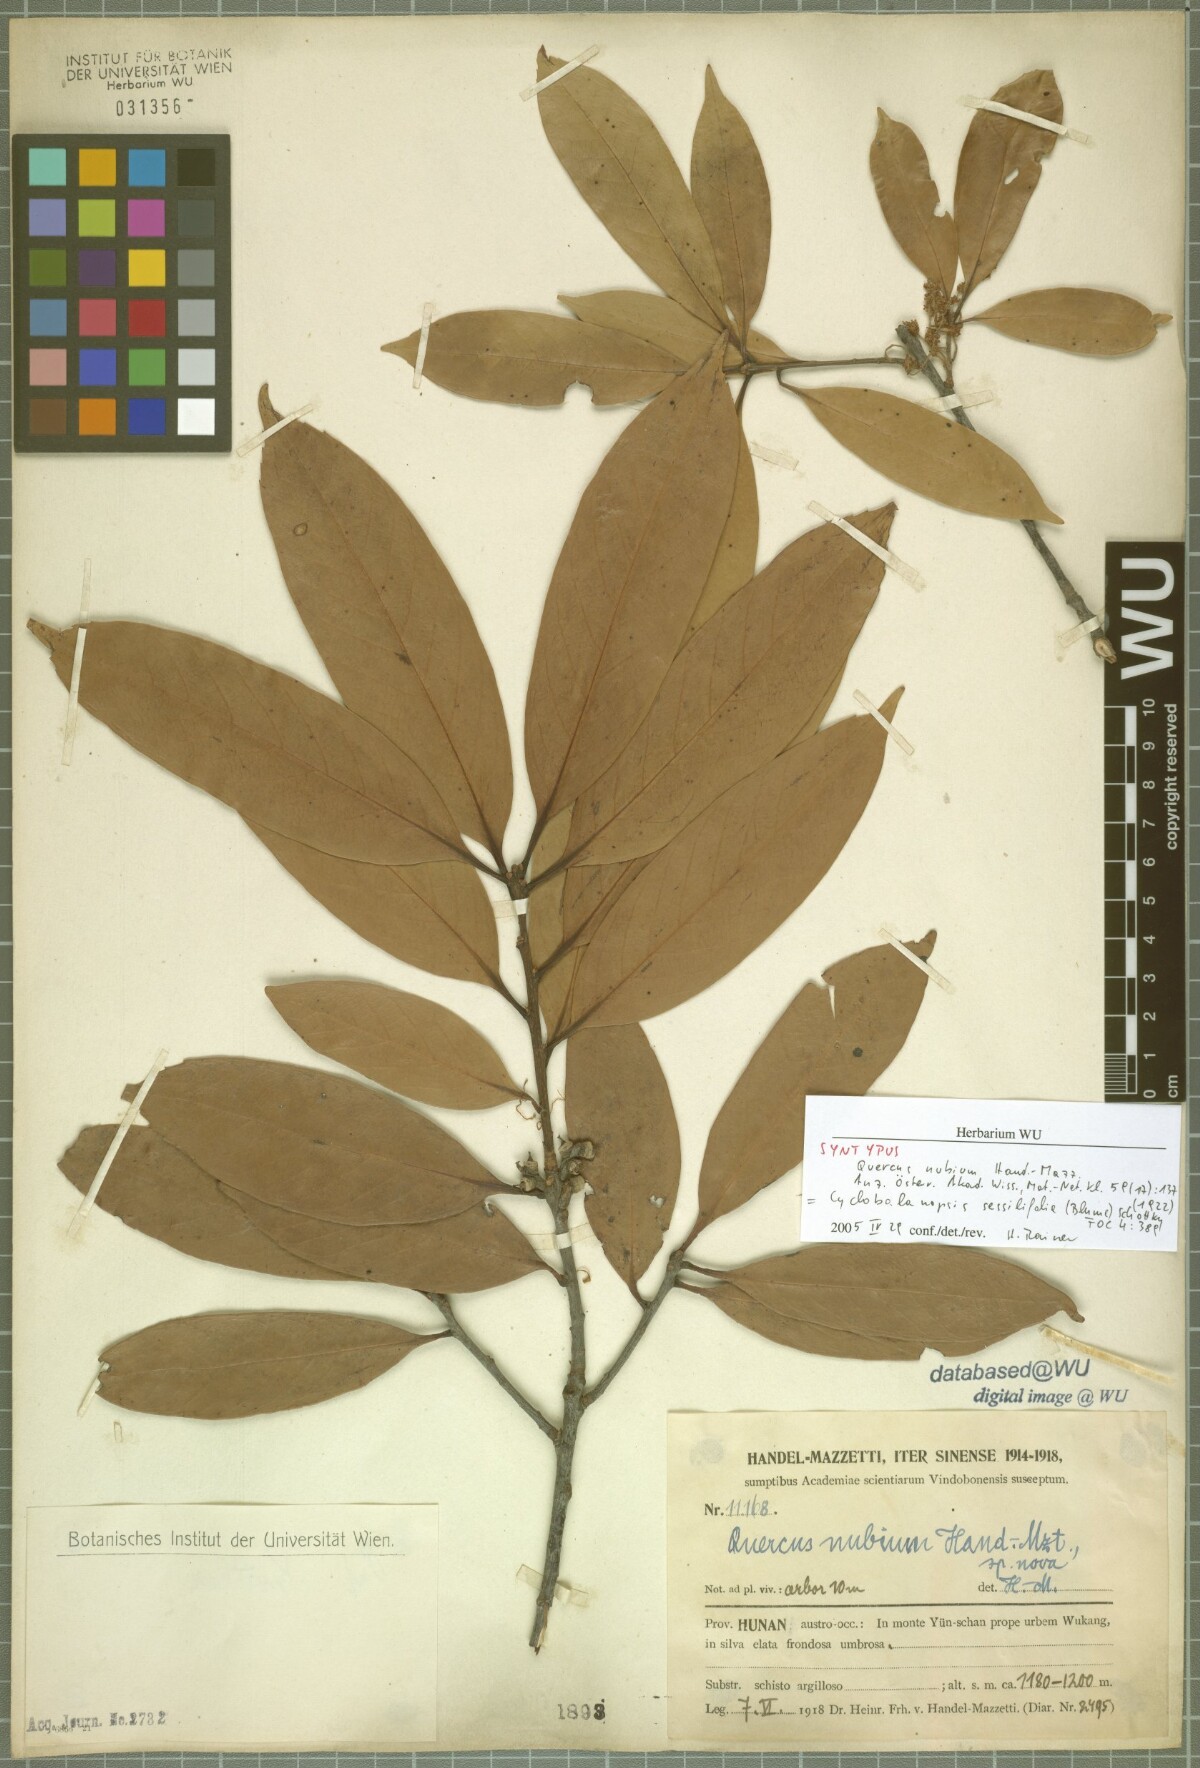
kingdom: Plantae
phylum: Tracheophyta
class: Magnoliopsida
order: Fagales
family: Fagaceae
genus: Quercus
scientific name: Quercus sessilifolia
